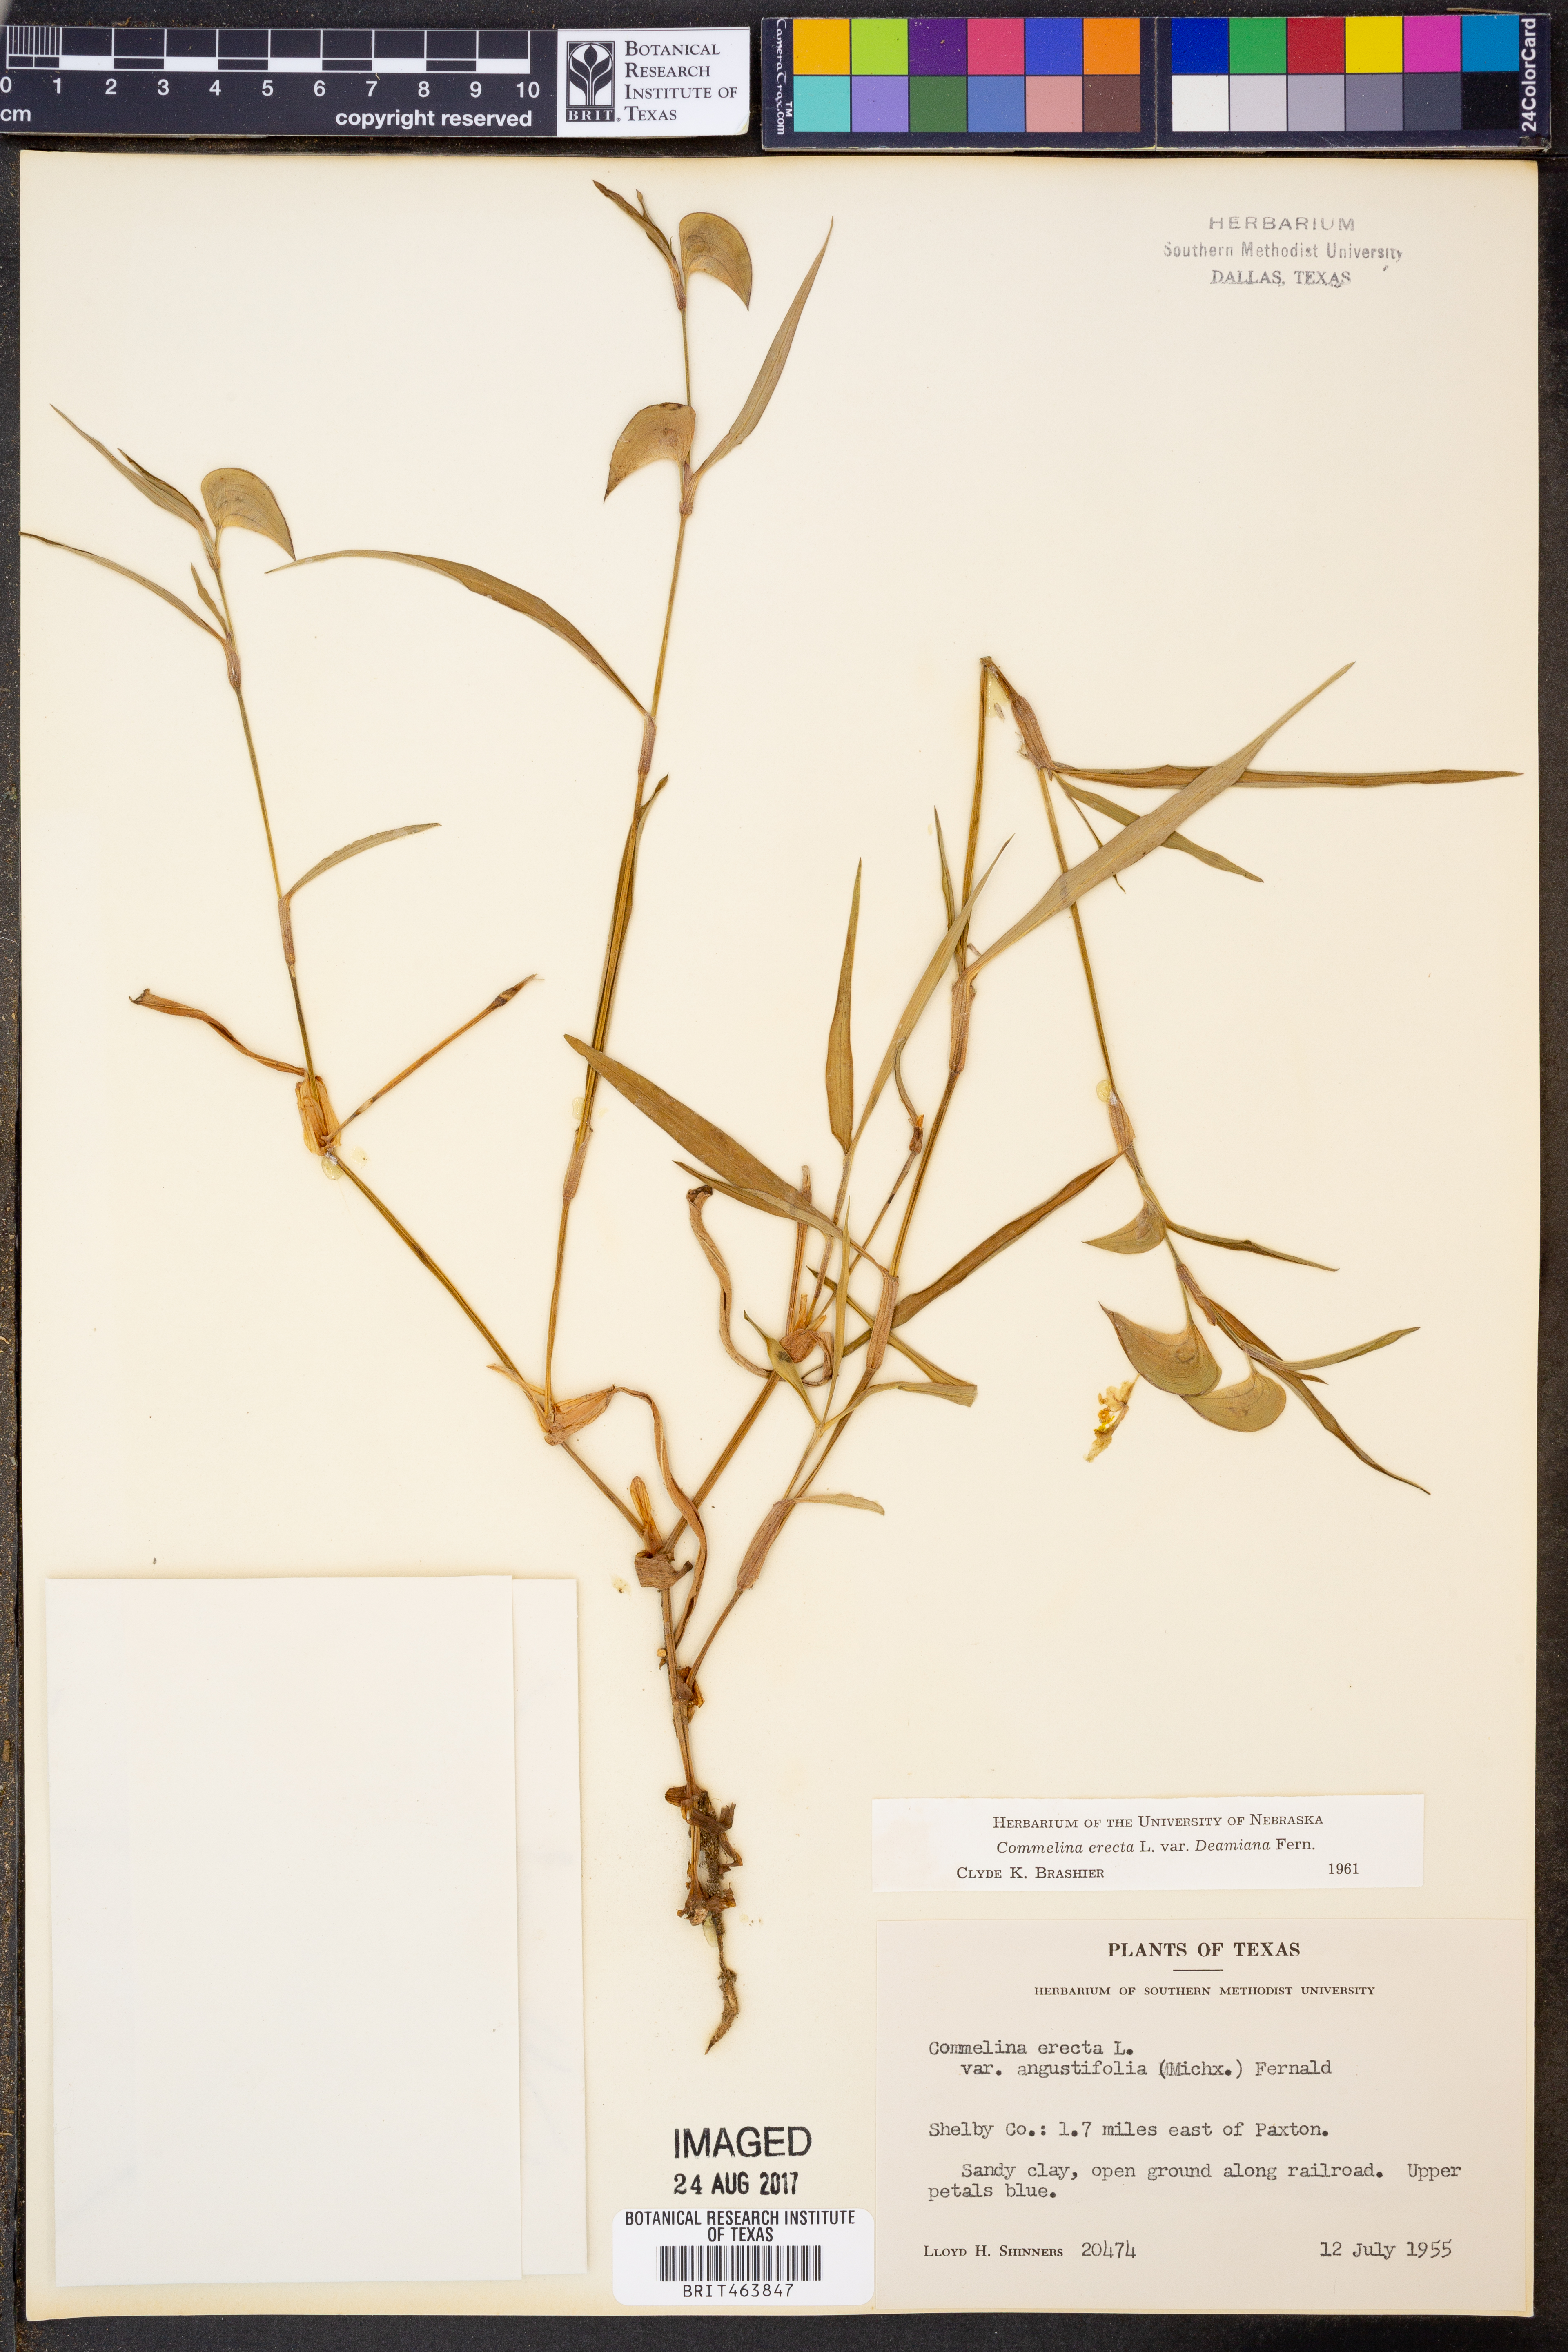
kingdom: Plantae
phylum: Tracheophyta
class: Liliopsida
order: Commelinales
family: Commelinaceae
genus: Commelina
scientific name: Commelina erecta
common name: Blousel blommetjie
